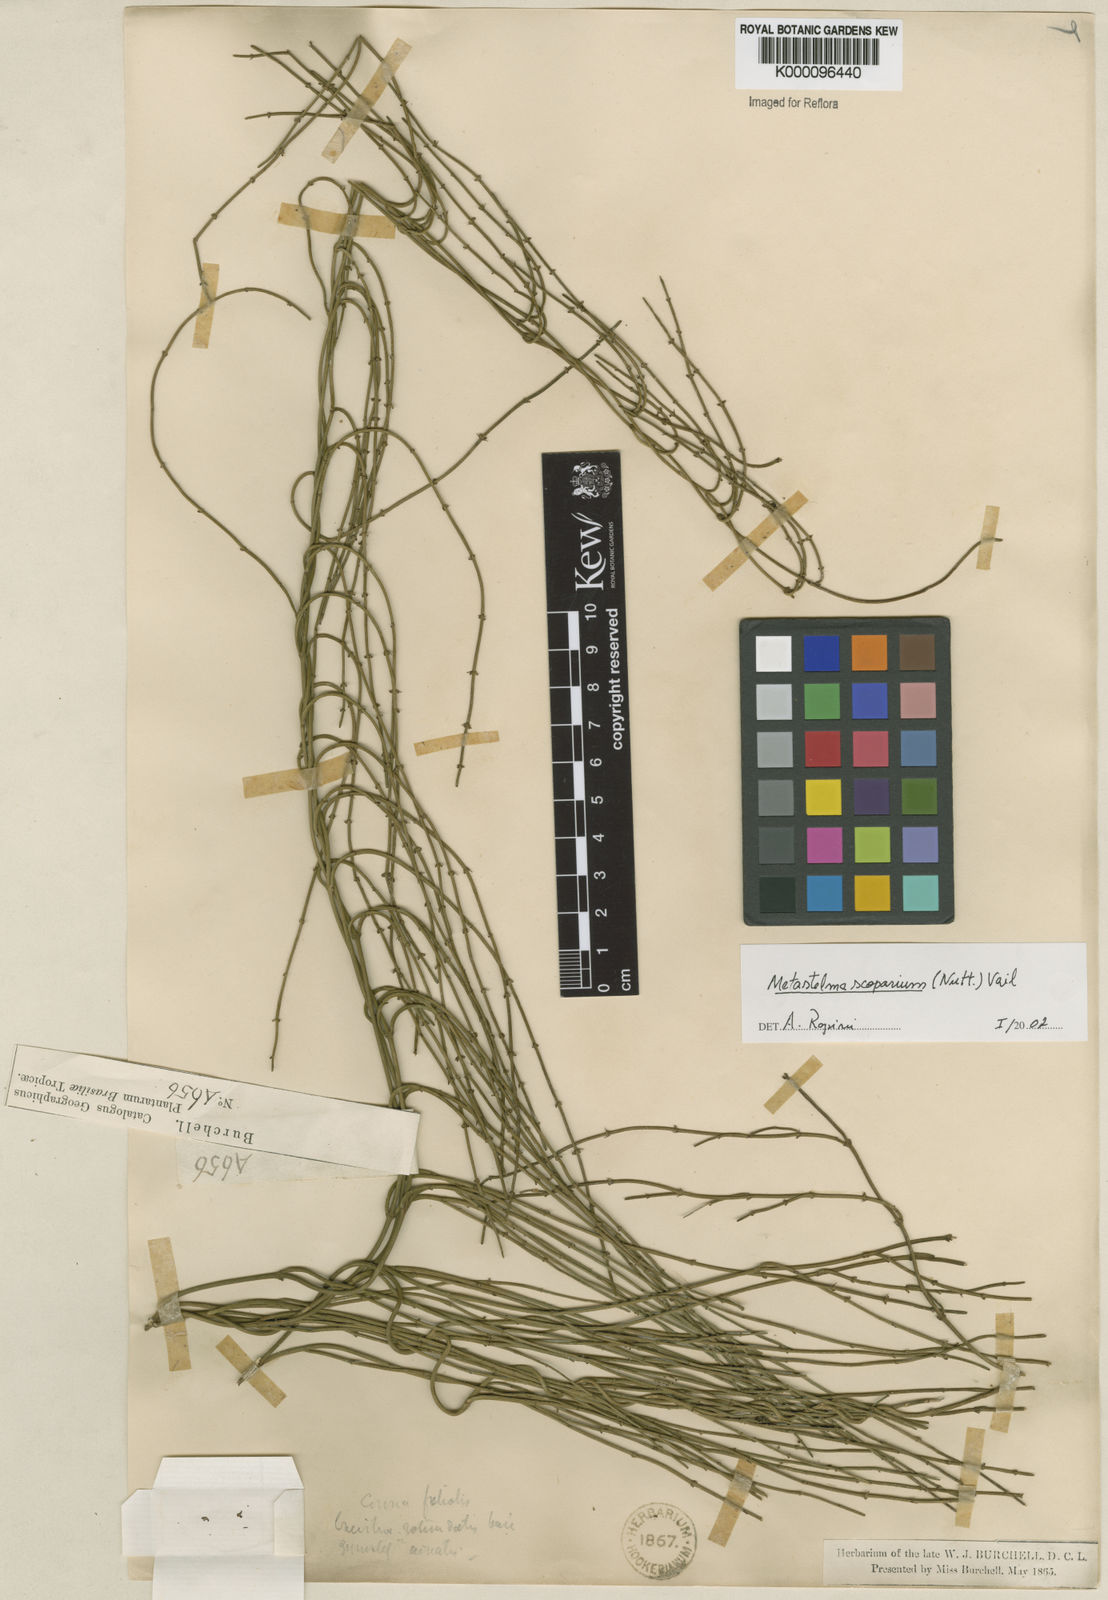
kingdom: Plantae
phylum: Tracheophyta
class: Magnoliopsida
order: Gentianales
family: Apocynaceae
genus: Orthosia
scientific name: Orthosia scoparia
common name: Leafless swallow-wort
